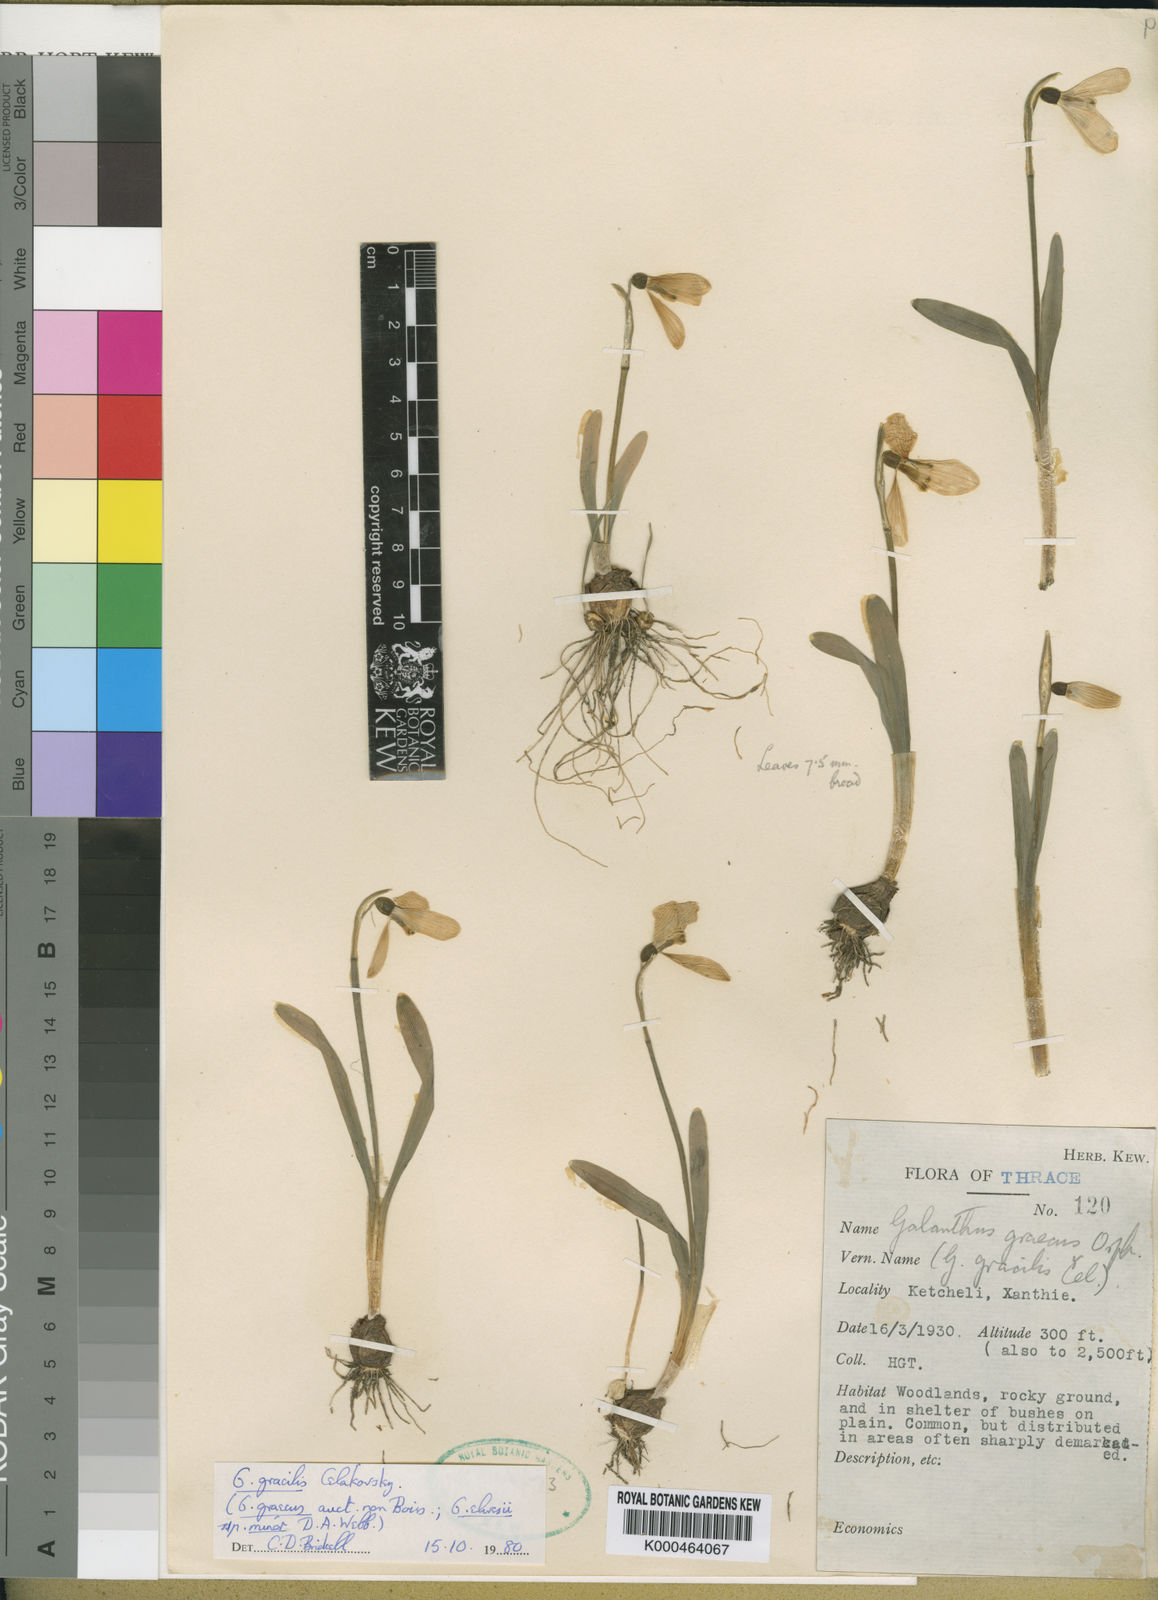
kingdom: Plantae
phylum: Tracheophyta
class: Liliopsida
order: Asparagales
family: Amaryllidaceae
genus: Galanthus
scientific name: Galanthus gracilis
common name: Snowdrop
